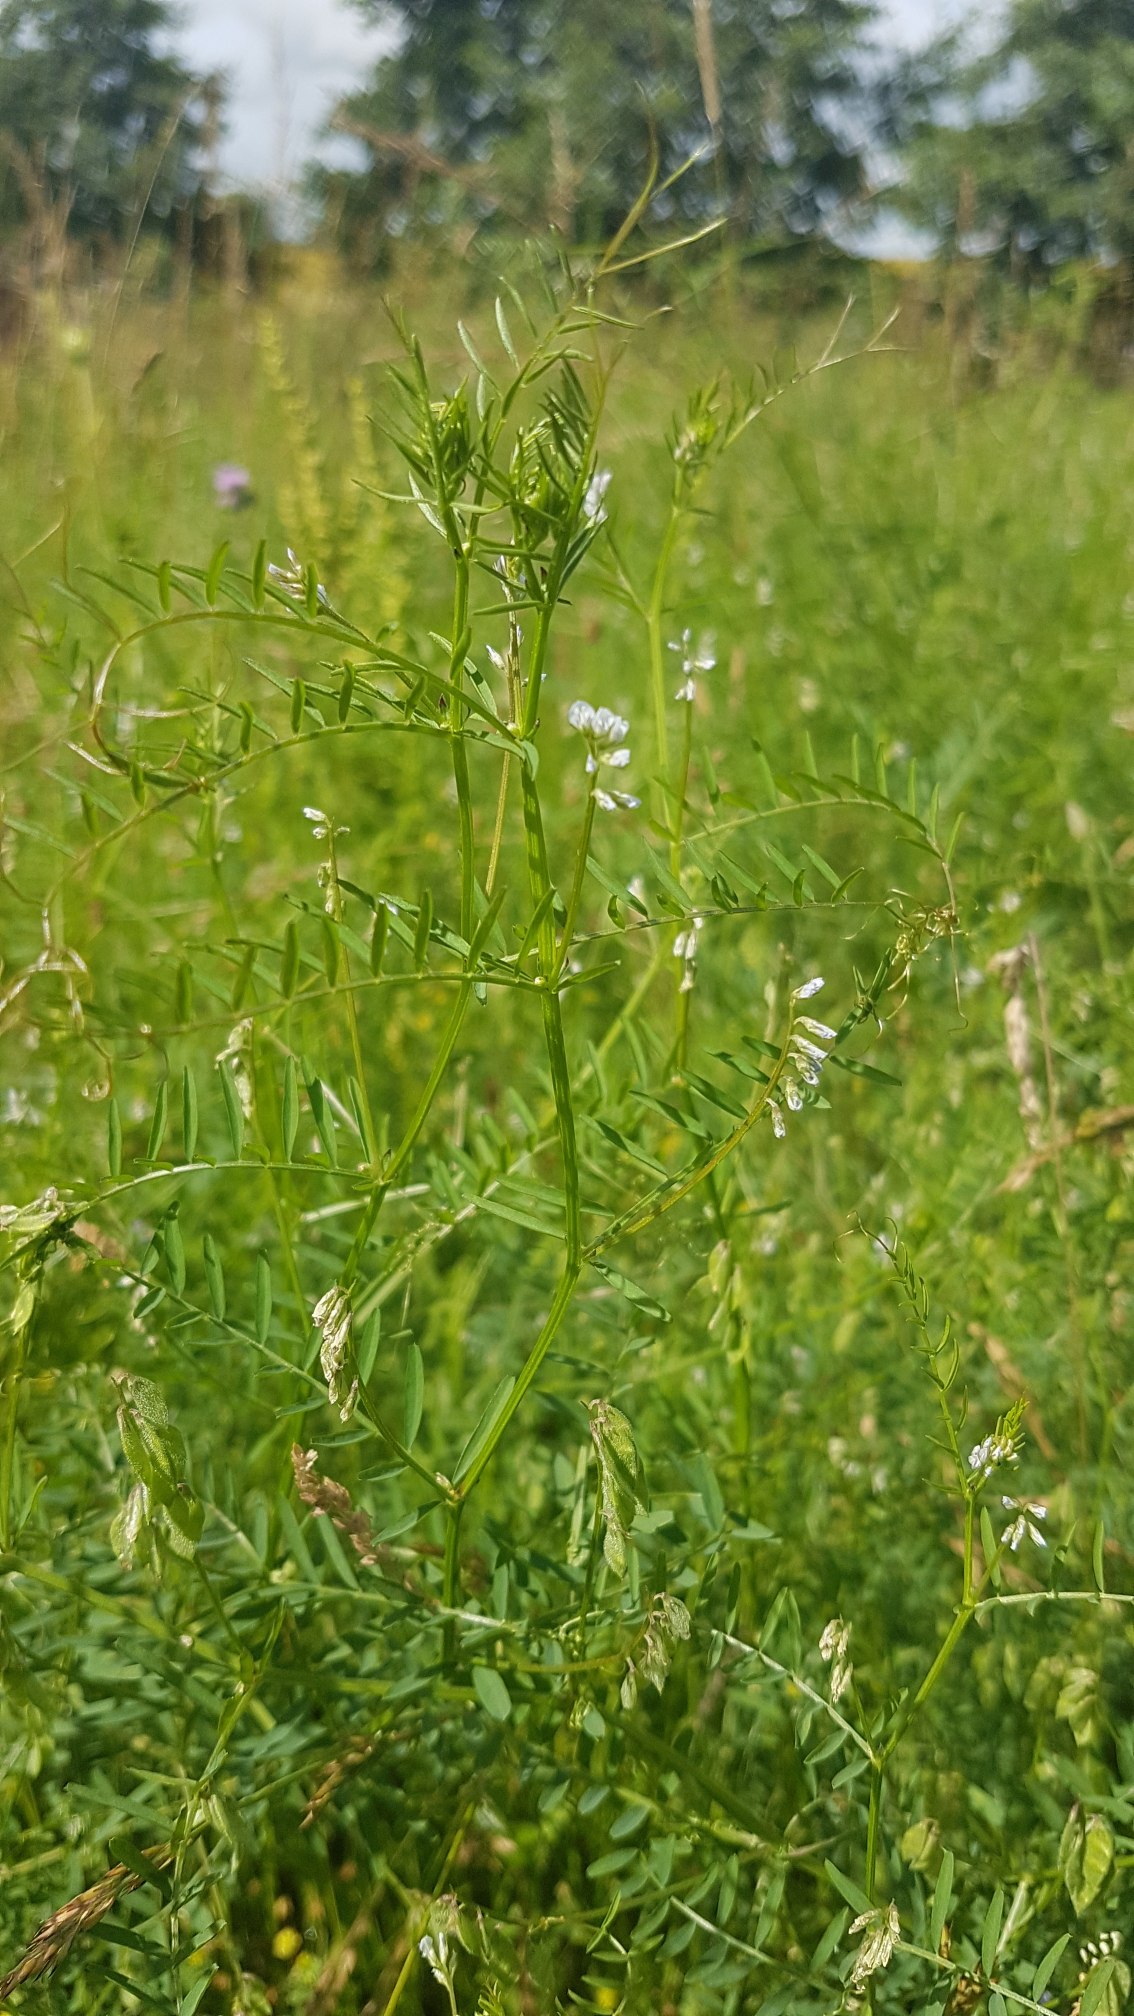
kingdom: Plantae
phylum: Tracheophyta
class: Magnoliopsida
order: Fabales
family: Fabaceae
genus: Vicia
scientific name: Vicia hirsuta
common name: Tofrøet vikke
